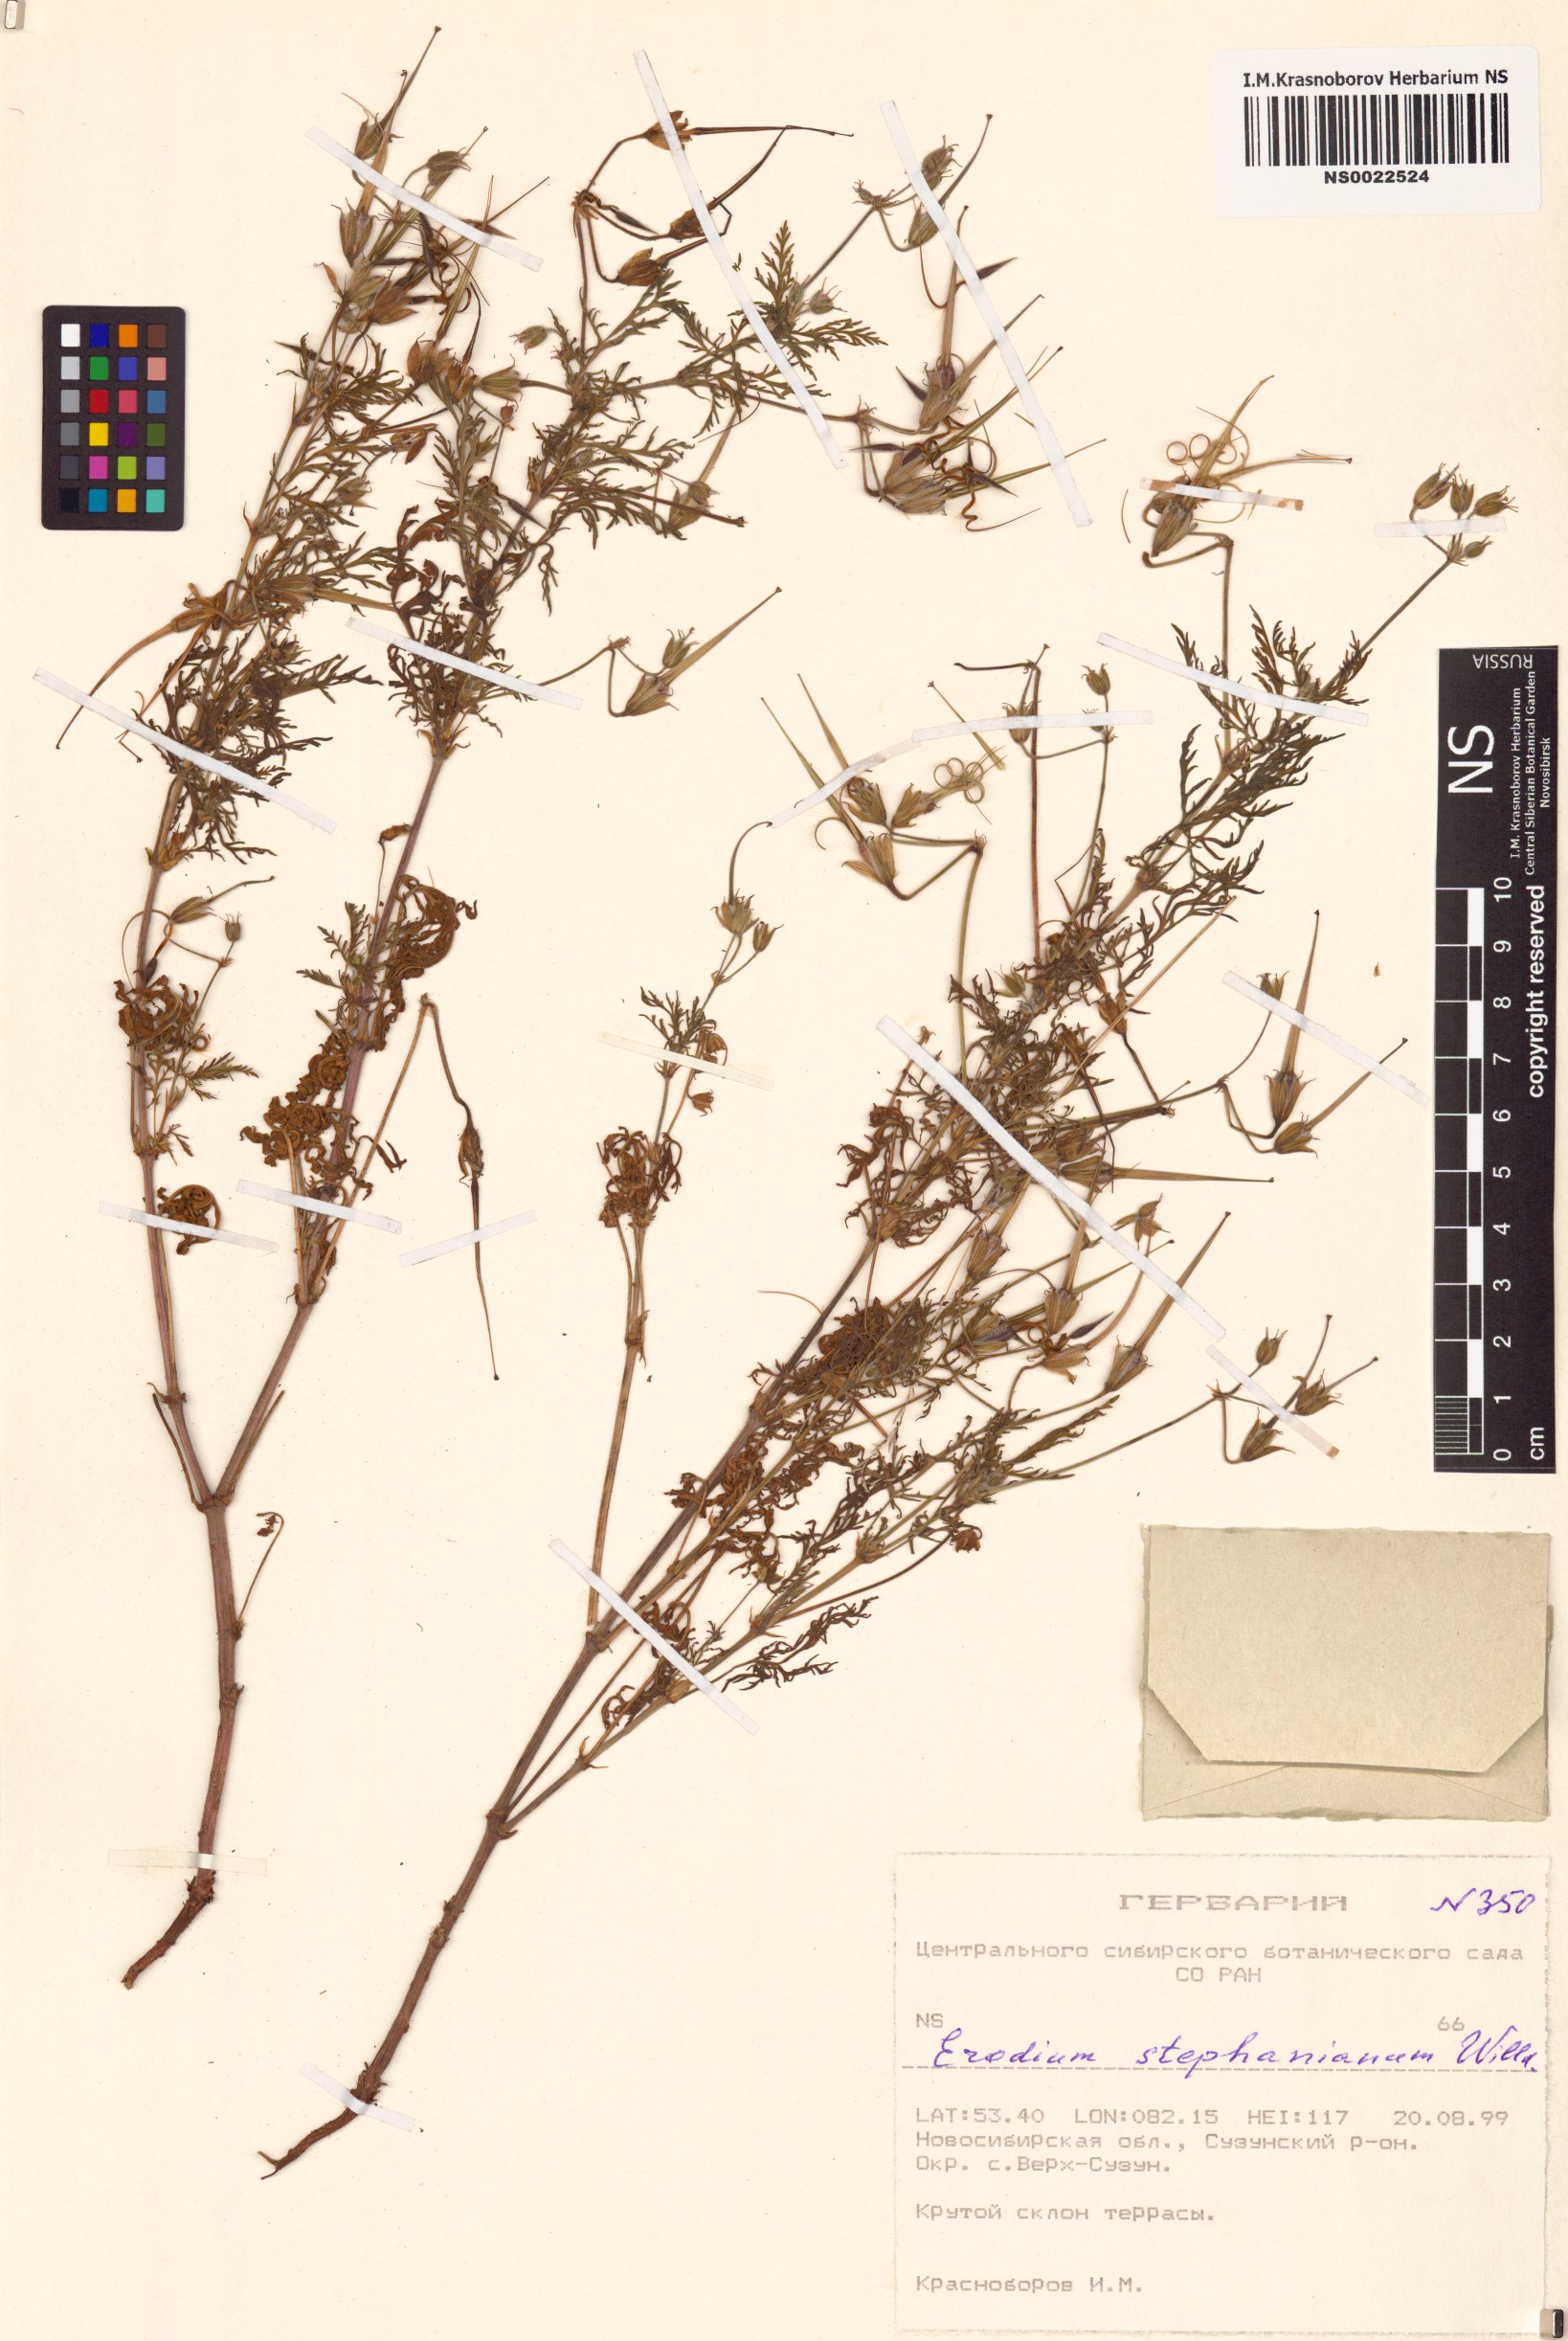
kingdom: Plantae
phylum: Tracheophyta
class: Magnoliopsida
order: Geraniales
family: Geraniaceae
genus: Erodium
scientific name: Erodium stephanianum
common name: Stephen's stork's bill
